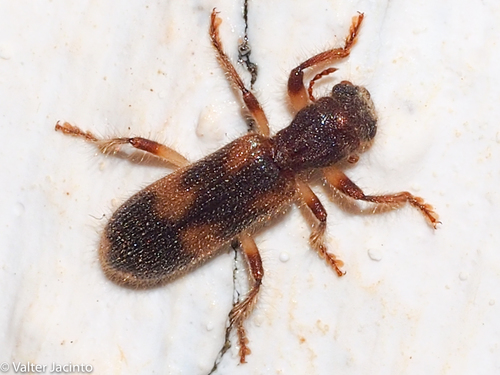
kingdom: Animalia
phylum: Arthropoda
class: Insecta
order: Coleoptera
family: Cleridae
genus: Opilo
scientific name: Opilo domesticus
